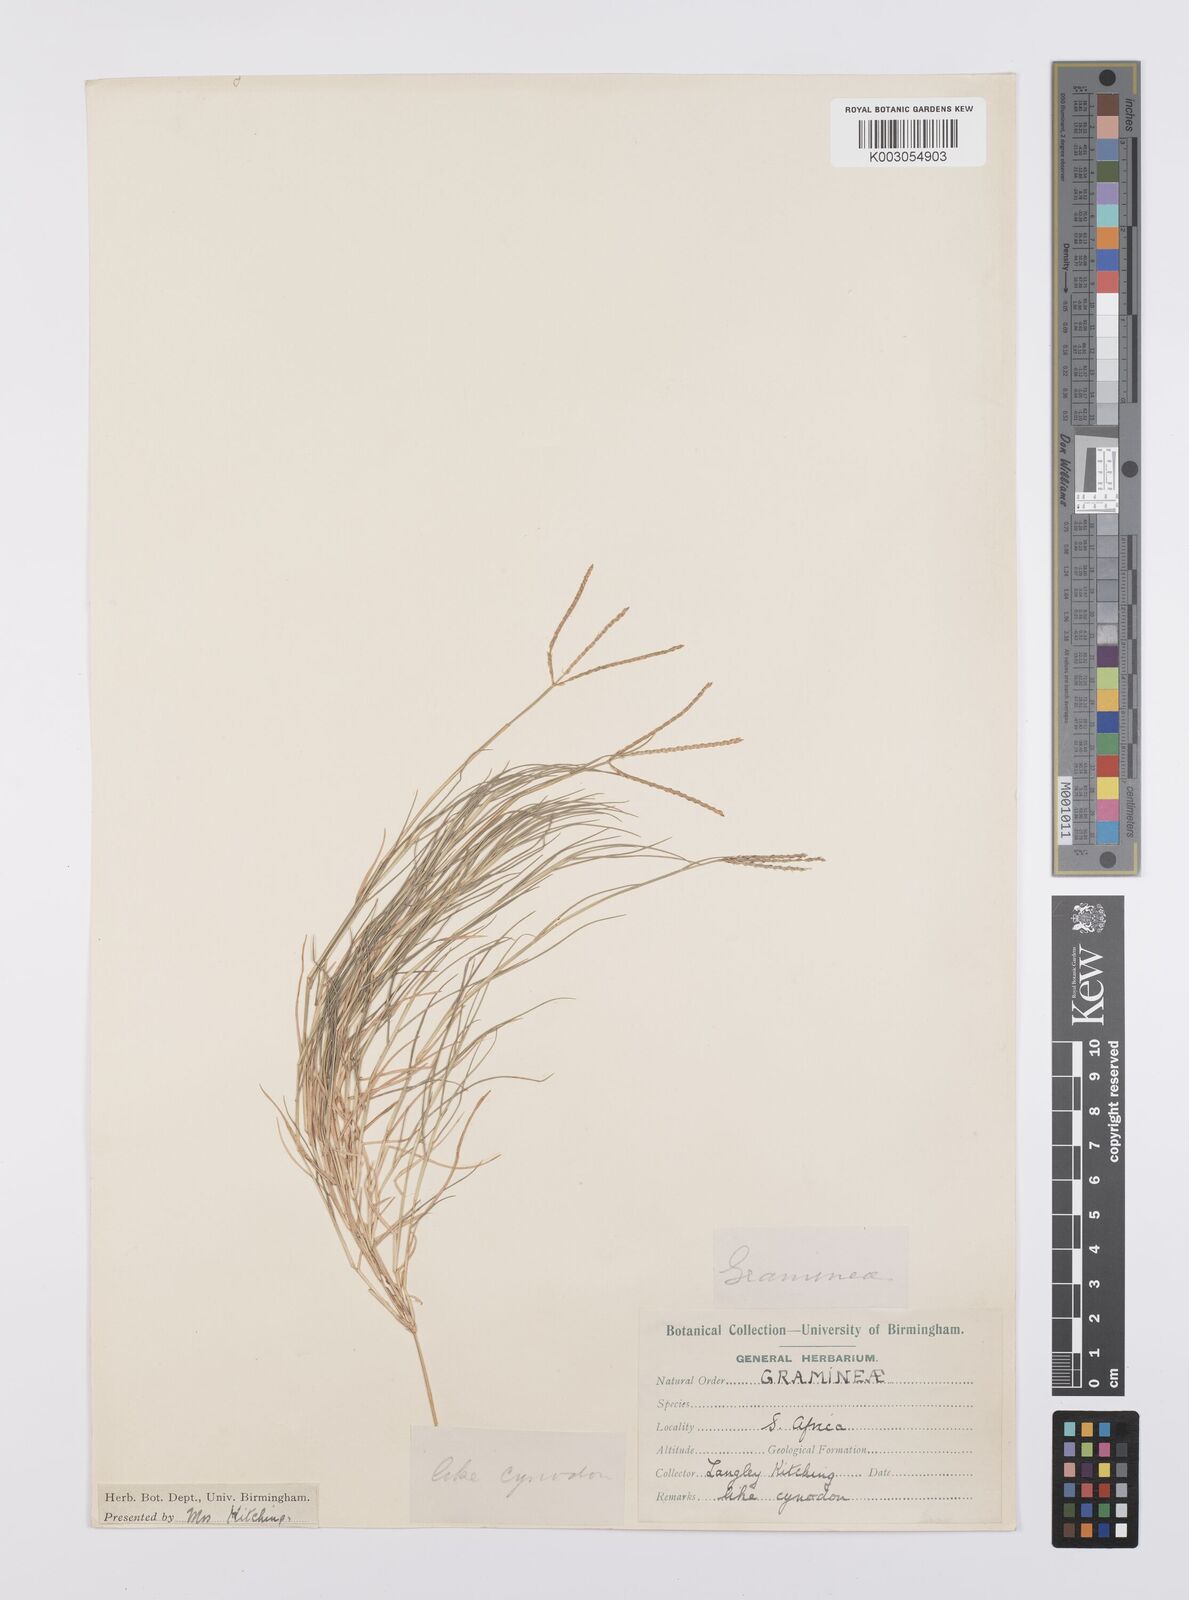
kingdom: Plantae
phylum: Tracheophyta
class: Liliopsida
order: Poales
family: Poaceae
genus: Cynodon
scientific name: Cynodon dactylon
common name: Bermuda grass
